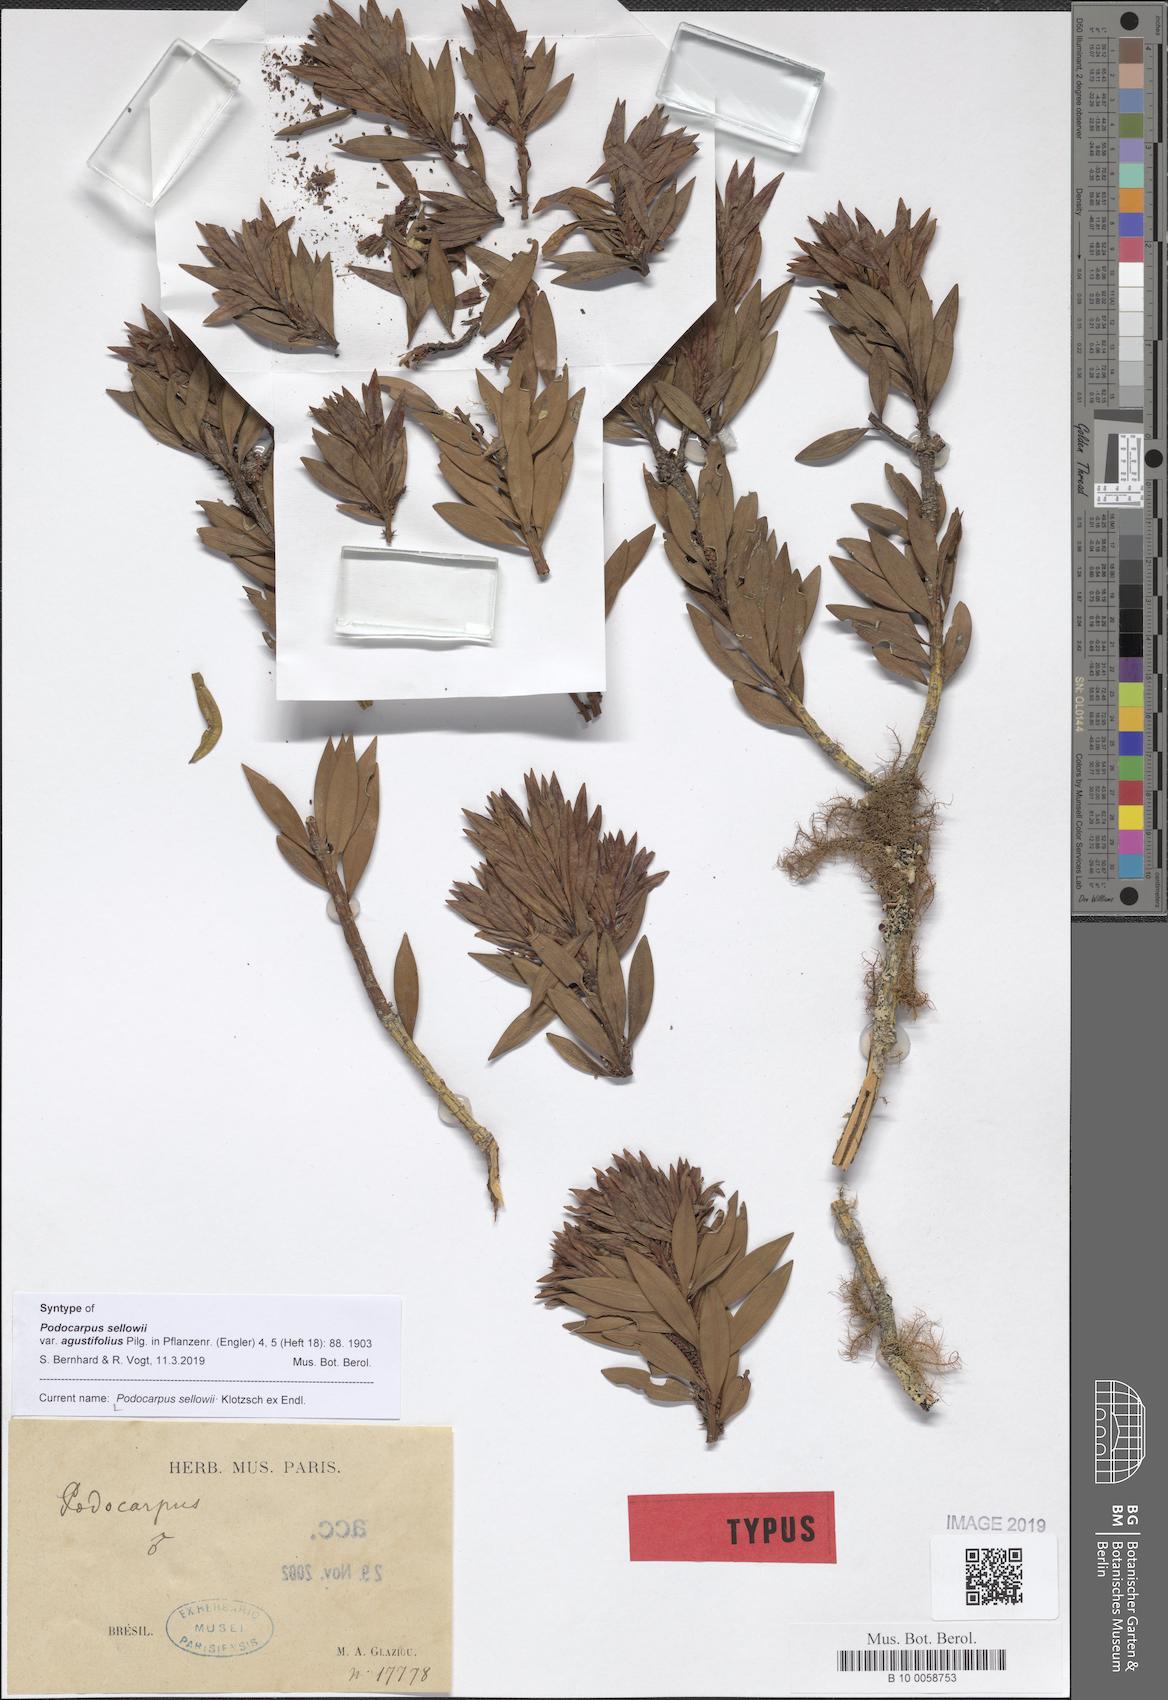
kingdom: Plantae
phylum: Tracheophyta
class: Pinopsida
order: Pinales
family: Podocarpaceae
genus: Podocarpus
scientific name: Podocarpus sellowii
